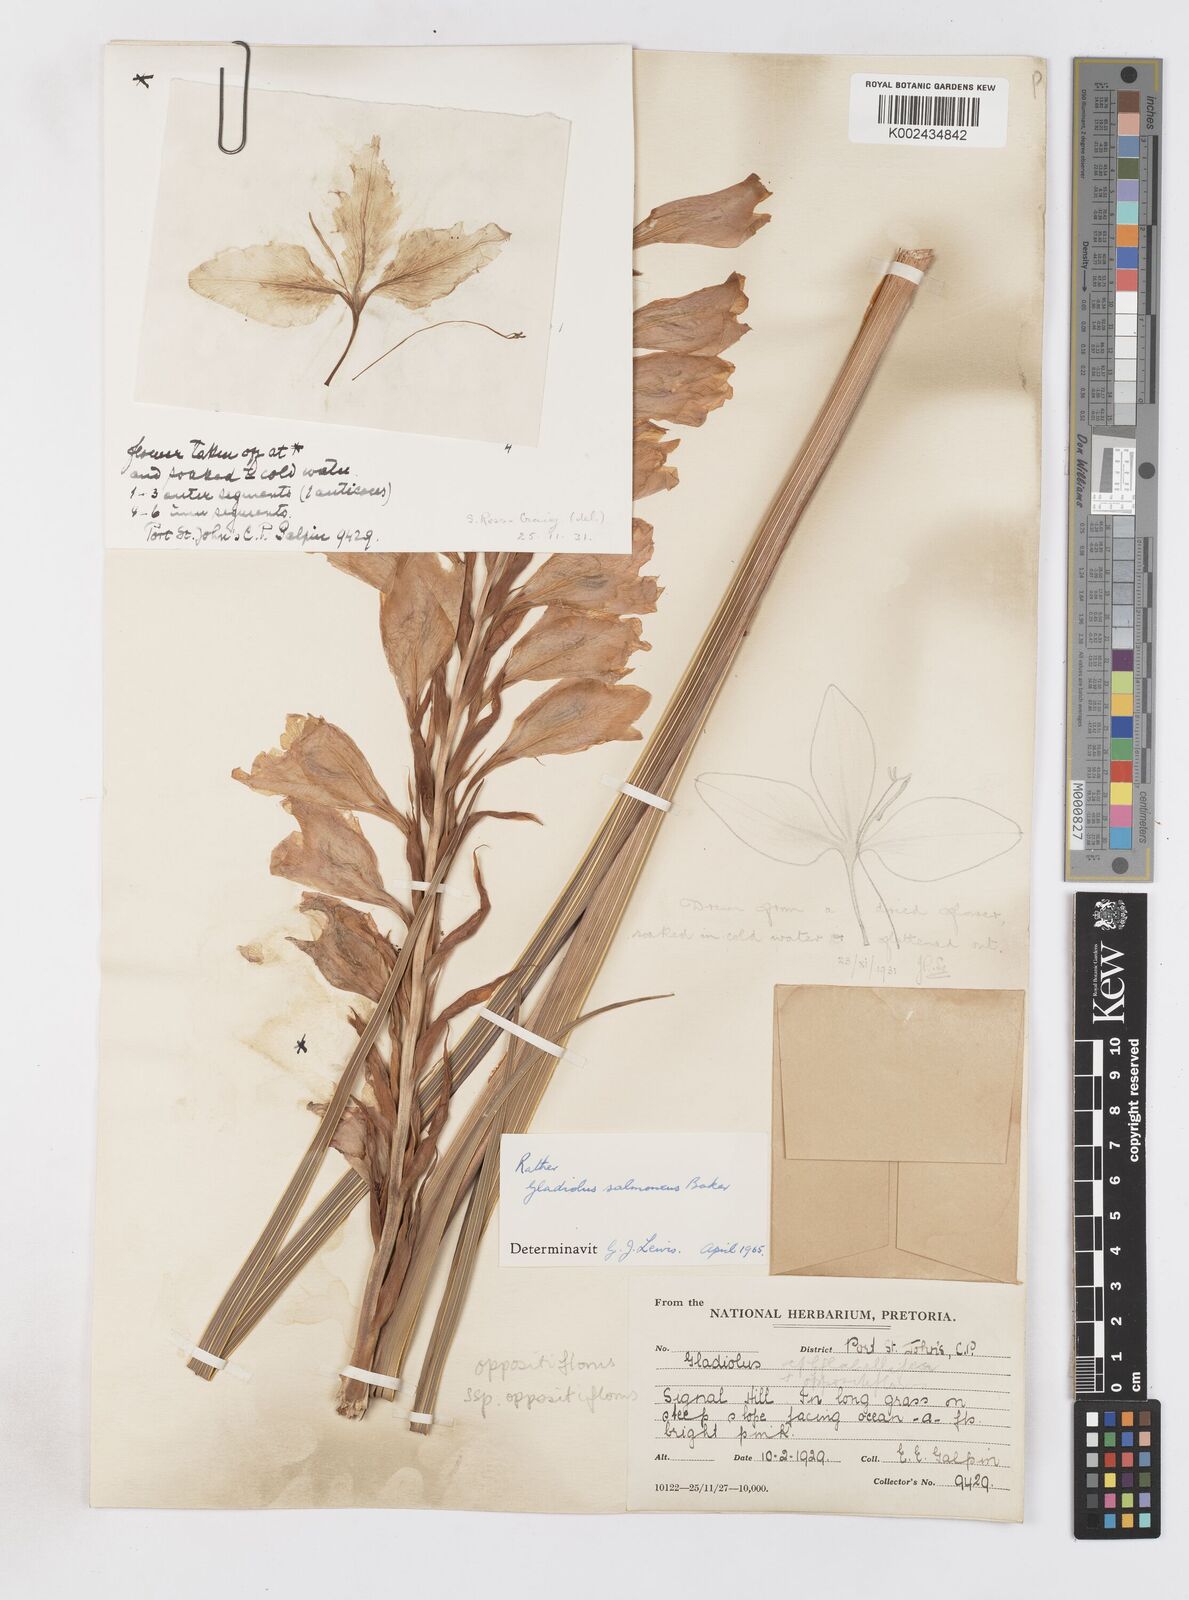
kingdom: Plantae
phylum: Tracheophyta
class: Liliopsida
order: Asparagales
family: Iridaceae
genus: Gladiolus
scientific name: Gladiolus oppositiflorus
